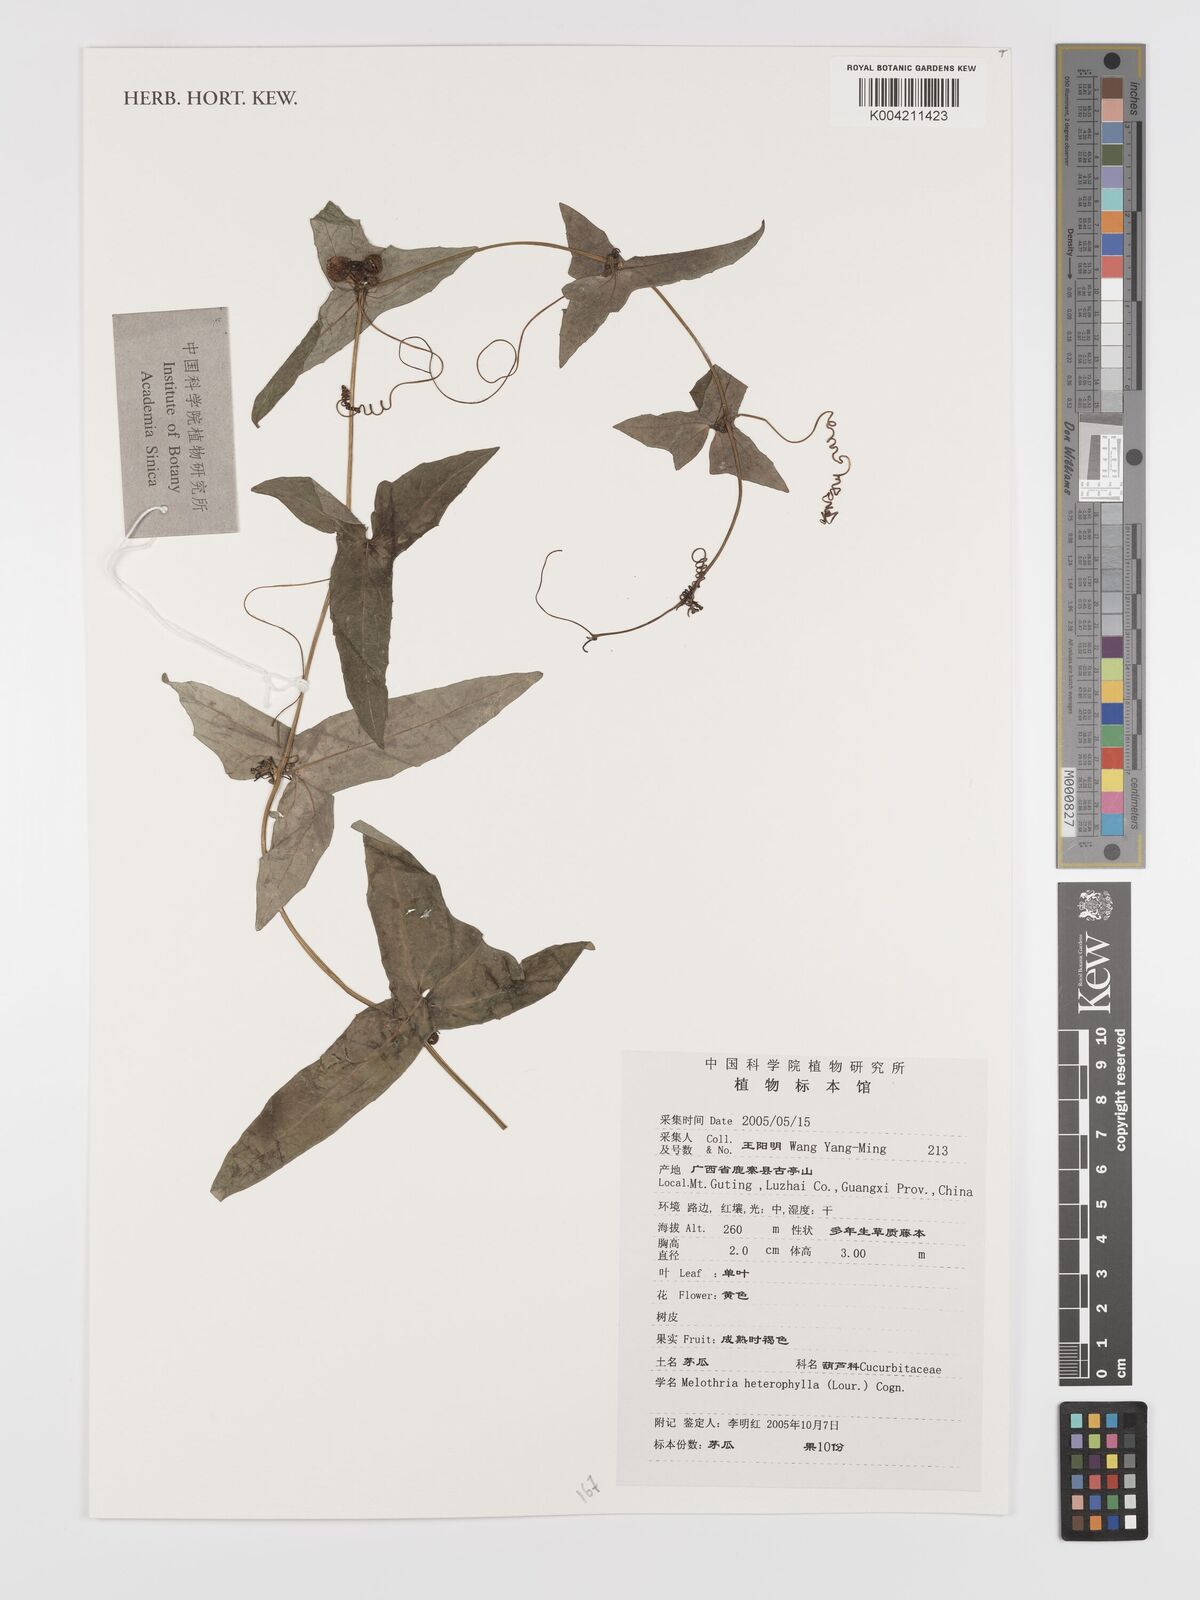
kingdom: Plantae
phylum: Tracheophyta
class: Magnoliopsida
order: Cucurbitales
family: Cucurbitaceae
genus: Solena
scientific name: Solena heterophylla
